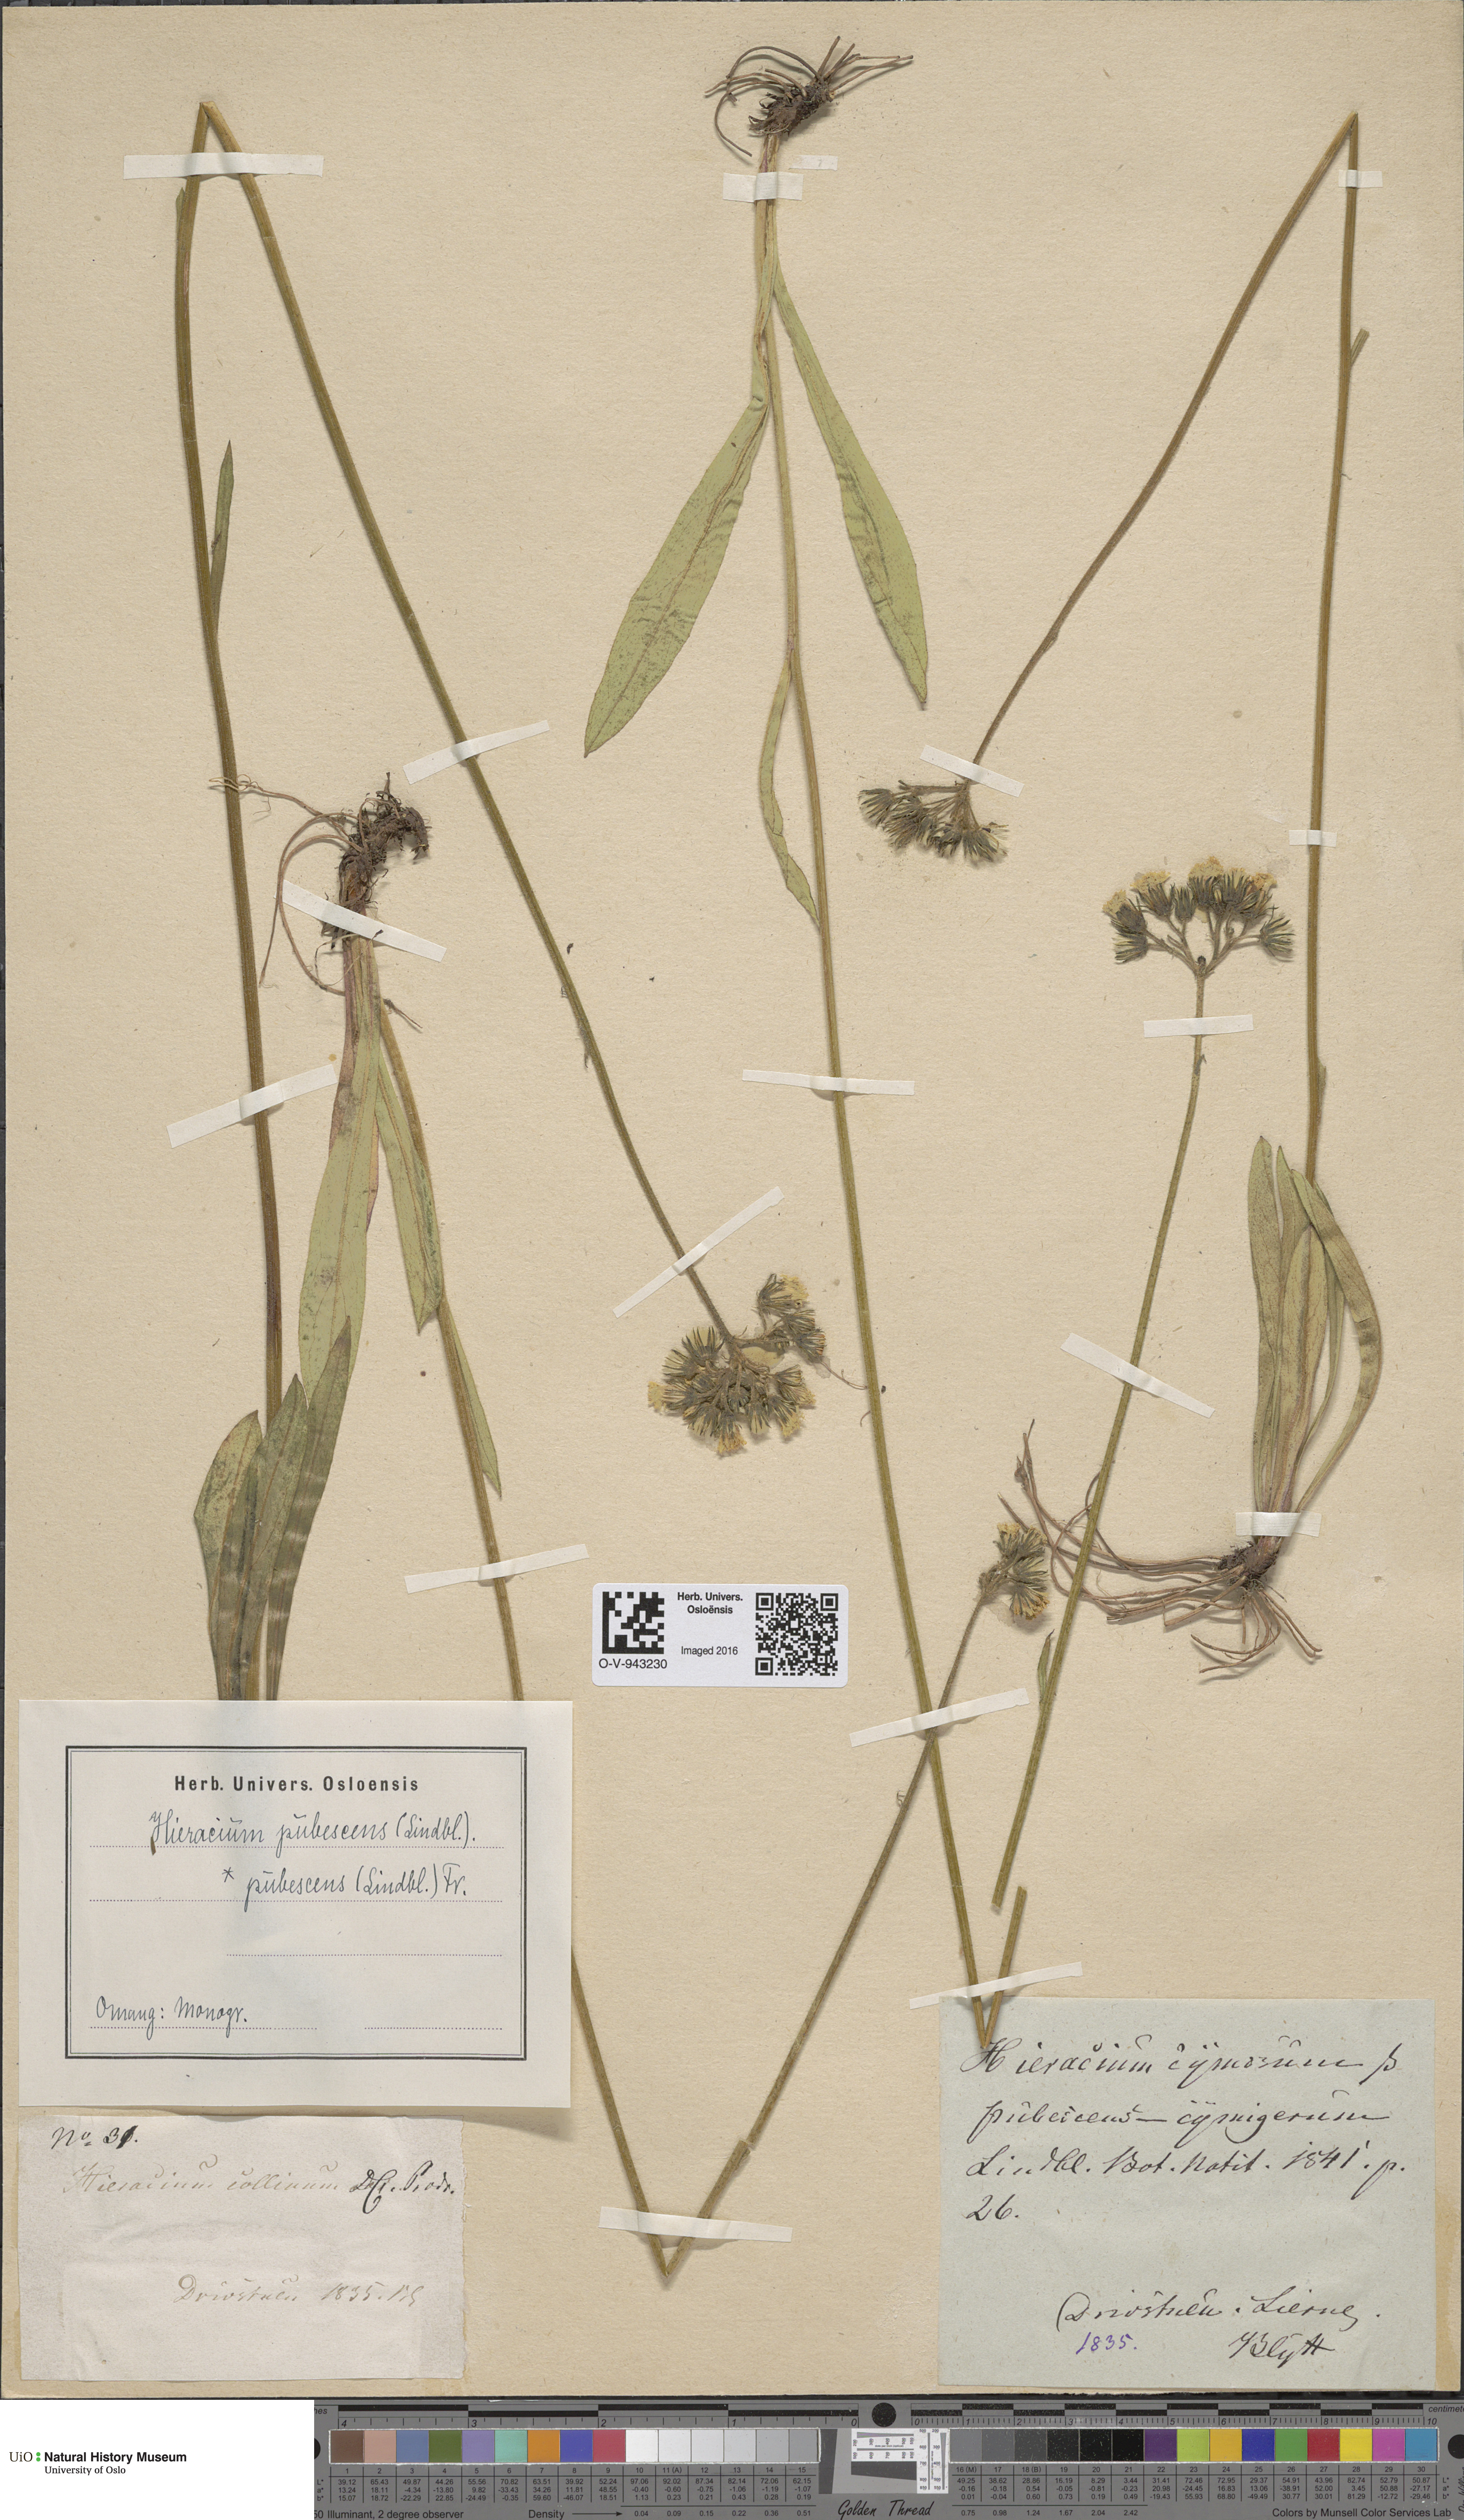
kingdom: Plantae
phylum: Tracheophyta
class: Magnoliopsida
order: Asterales
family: Asteraceae
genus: Pilosella
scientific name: Pilosella cymosa
